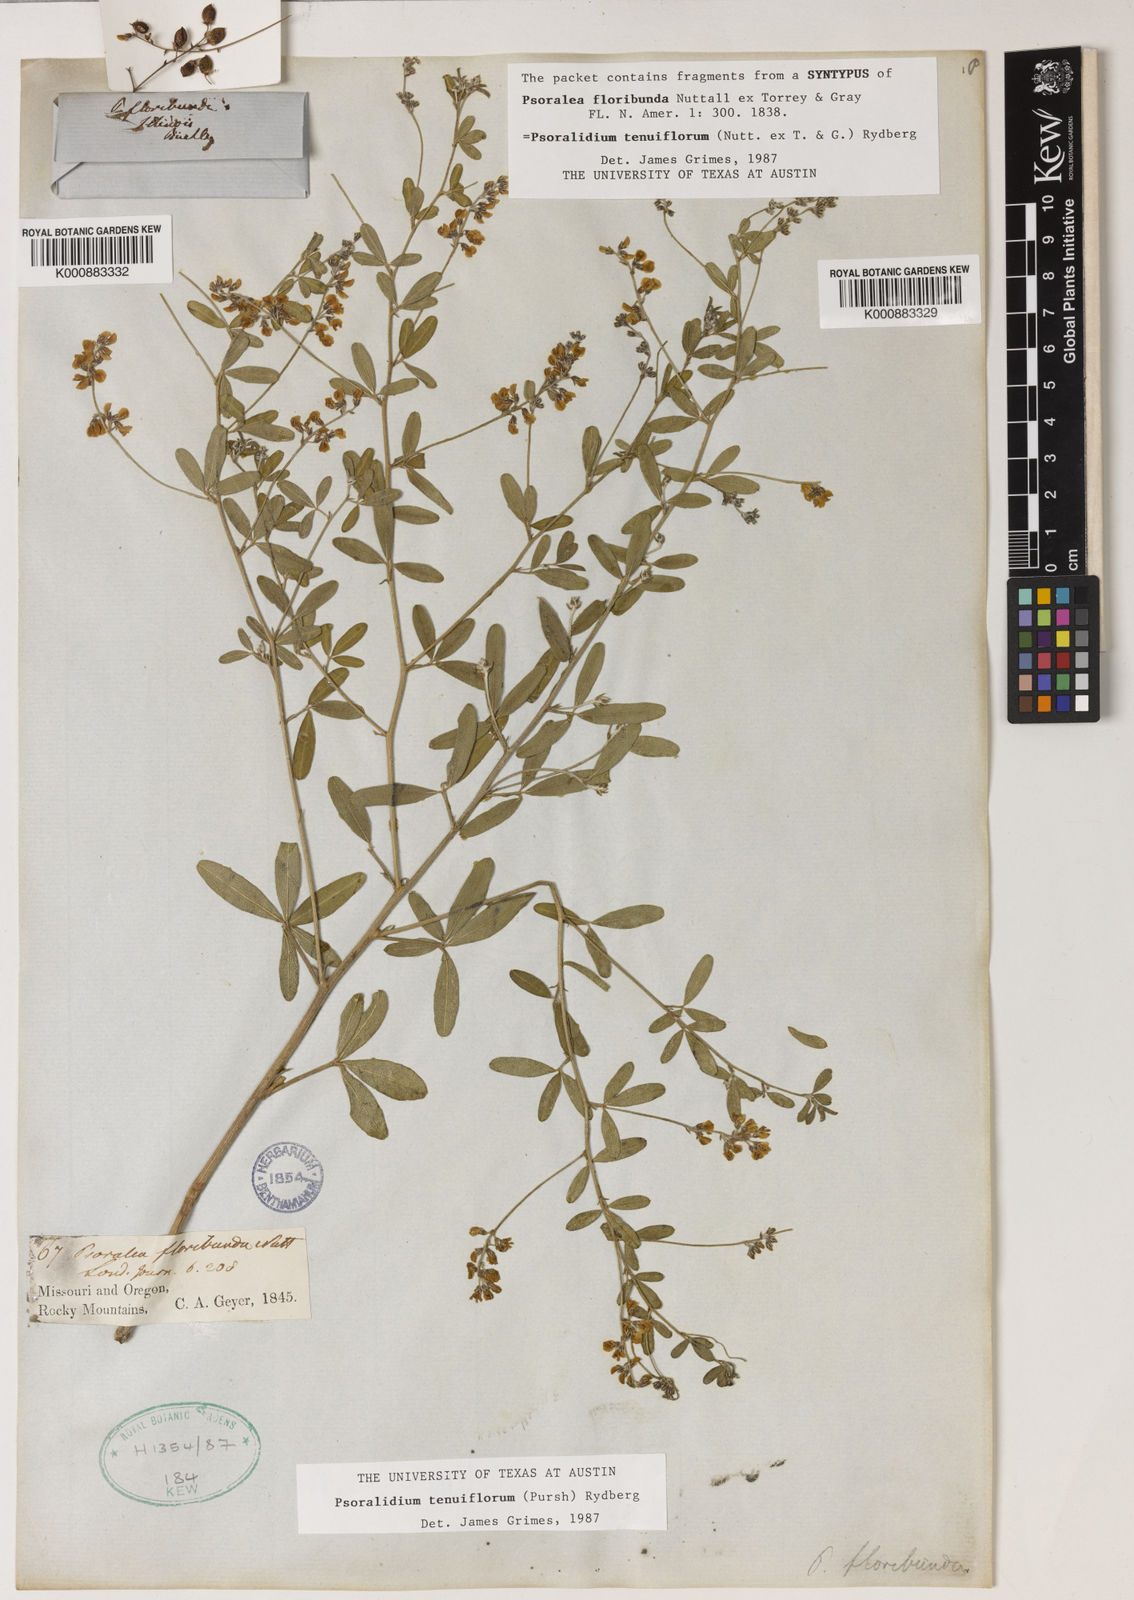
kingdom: Plantae
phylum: Tracheophyta
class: Magnoliopsida
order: Fabales
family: Fabaceae
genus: Pediomelum
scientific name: Pediomelum tenuiflorum
